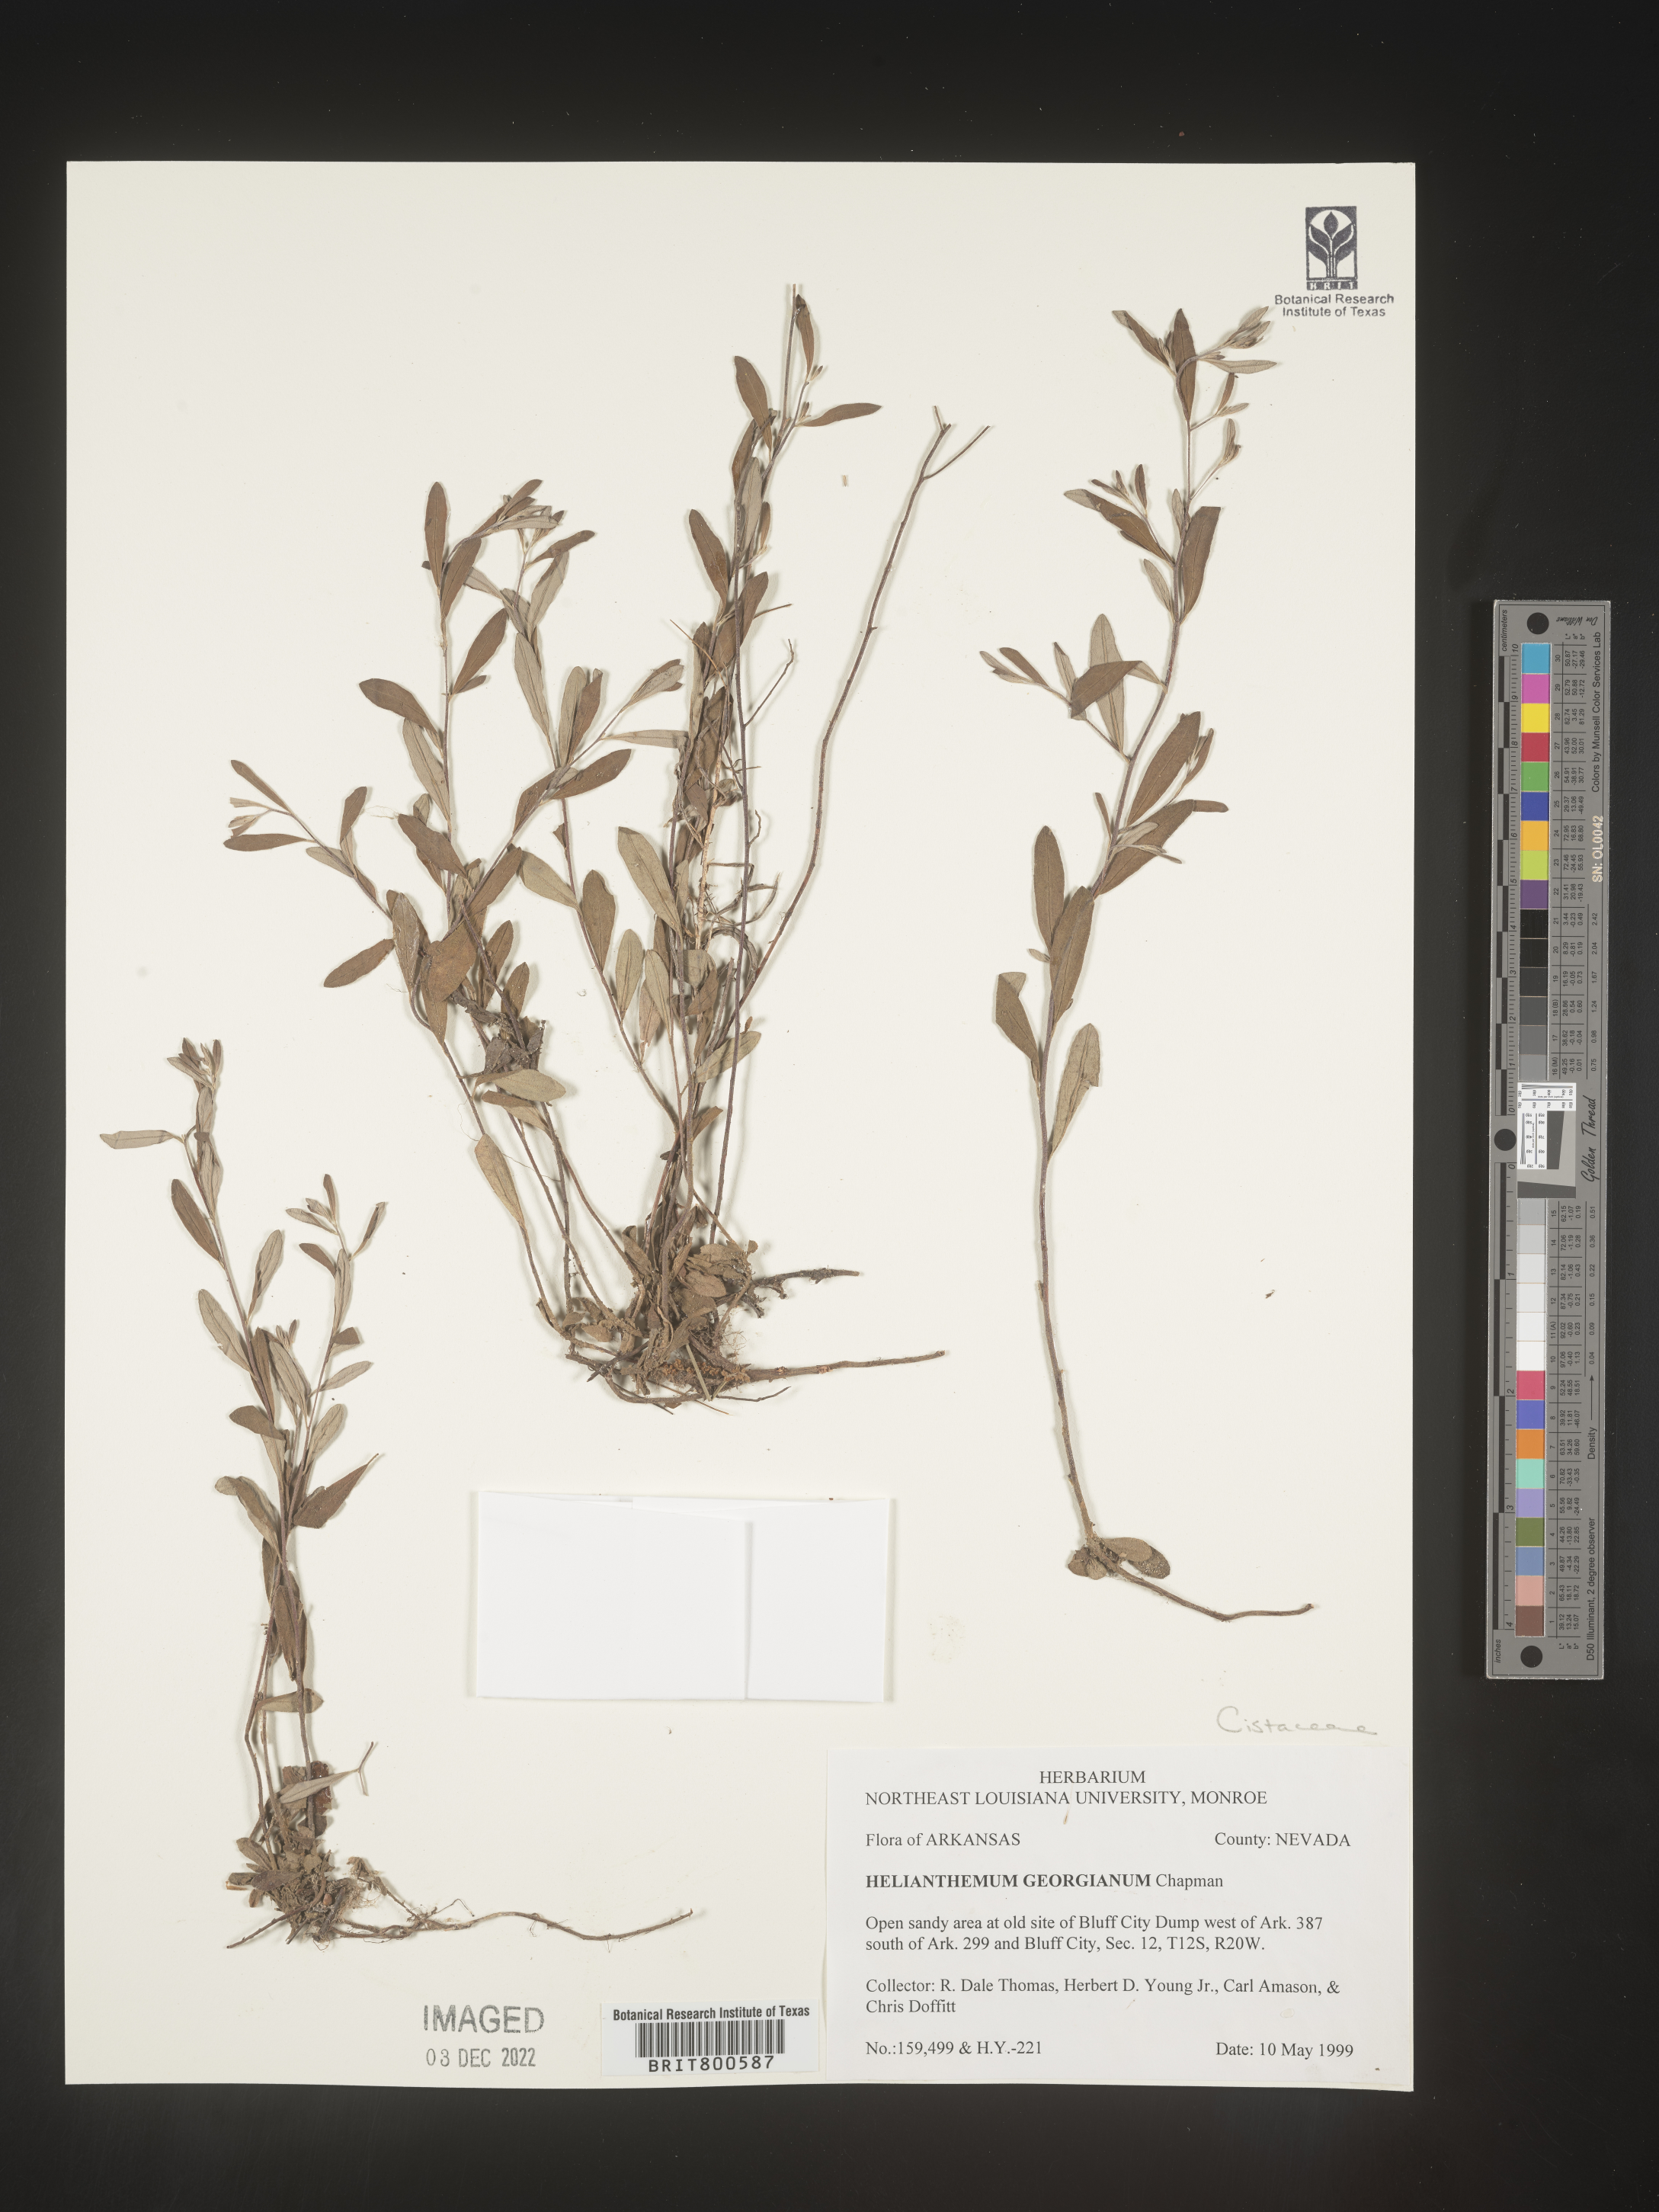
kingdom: Plantae
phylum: Tracheophyta
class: Magnoliopsida
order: Malvales
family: Cistaceae
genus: Crocanthemum
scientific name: Crocanthemum georgianum
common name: Georgia frostweed
